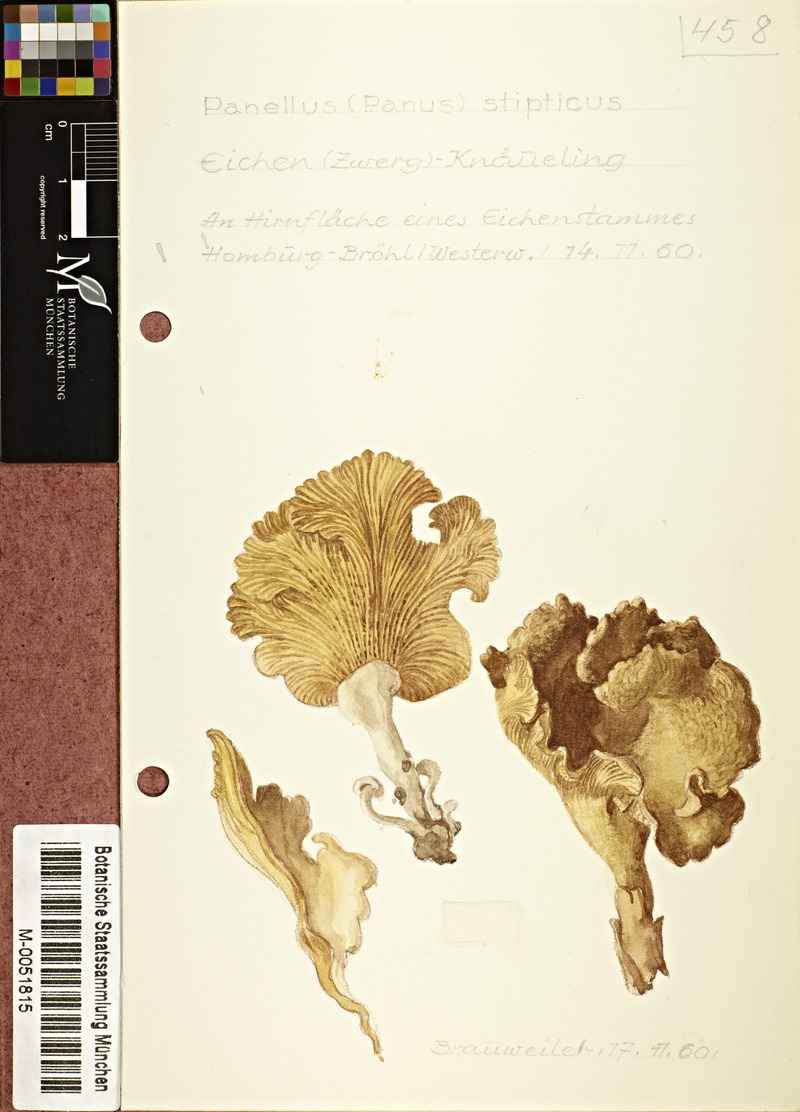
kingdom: Fungi
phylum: Basidiomycota
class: Agaricomycetes
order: Agaricales
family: Mycenaceae
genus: Panellus
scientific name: Panellus stipticus
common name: Bitter oysterling
